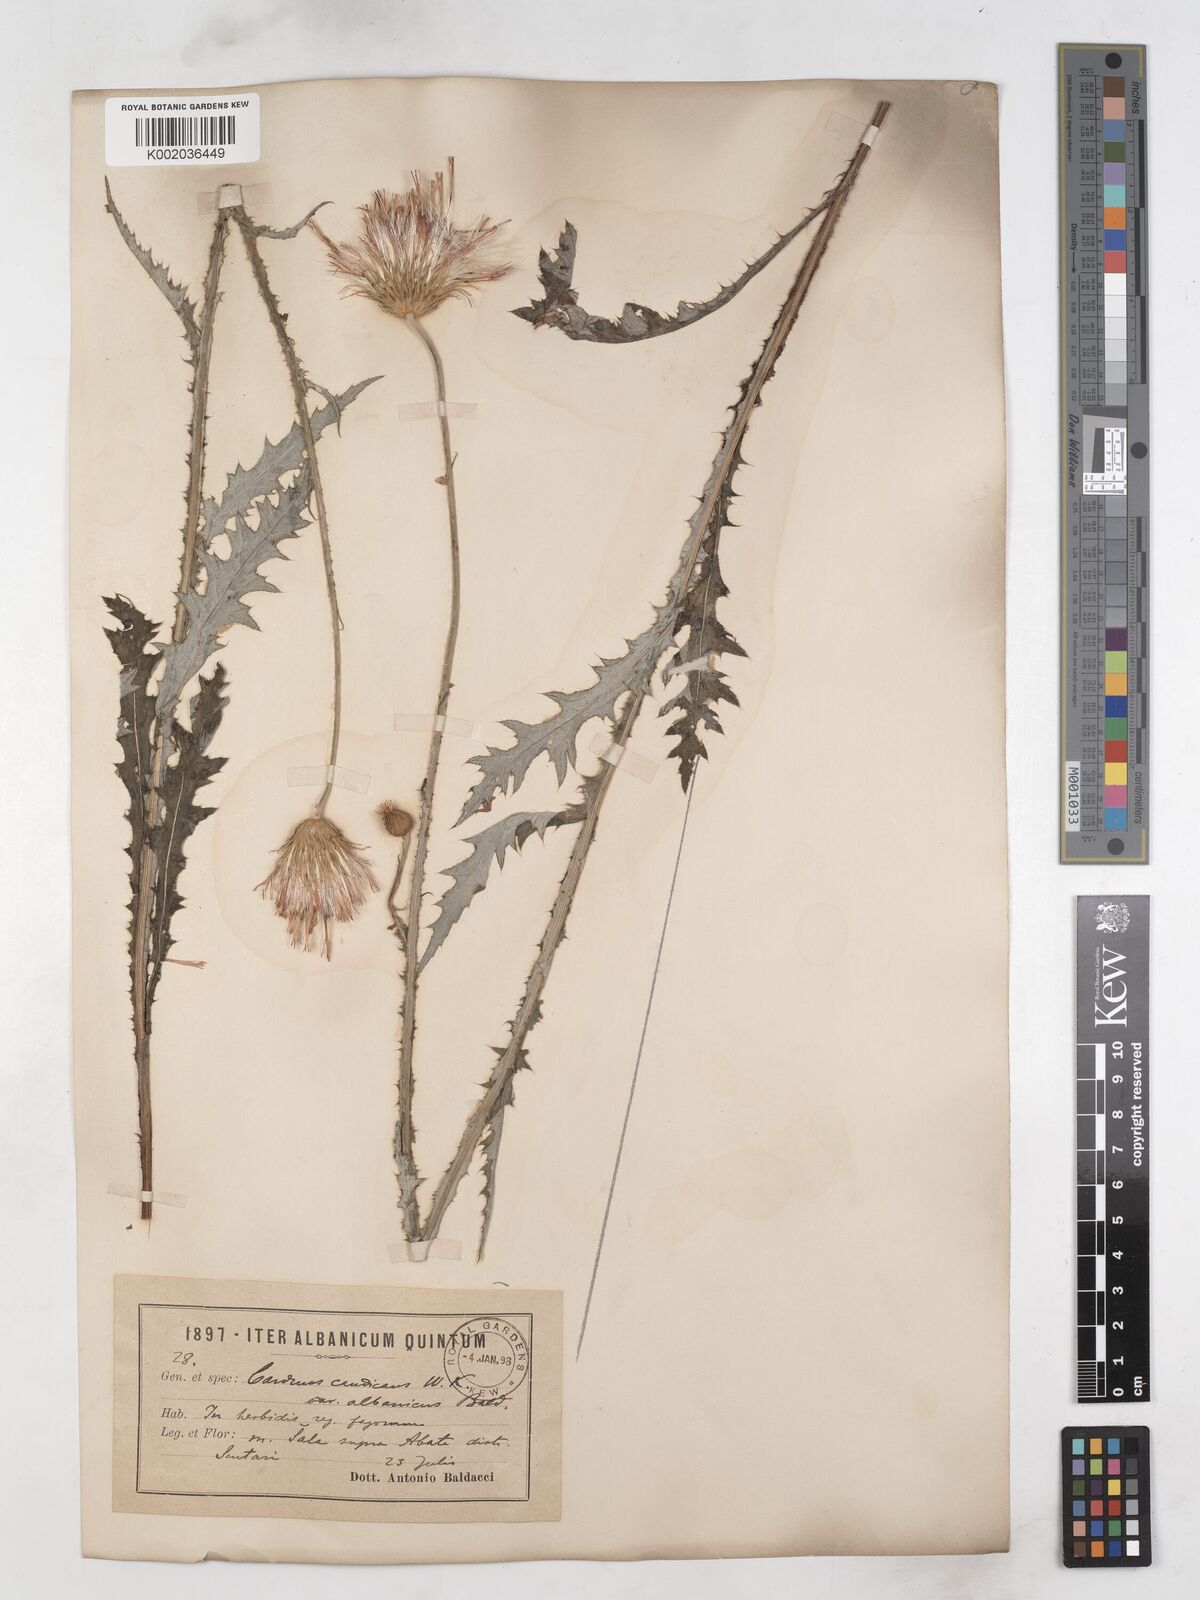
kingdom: Plantae
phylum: Tracheophyta
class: Magnoliopsida
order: Asterales
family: Asteraceae
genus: Carduus
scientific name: Carduus candicans
